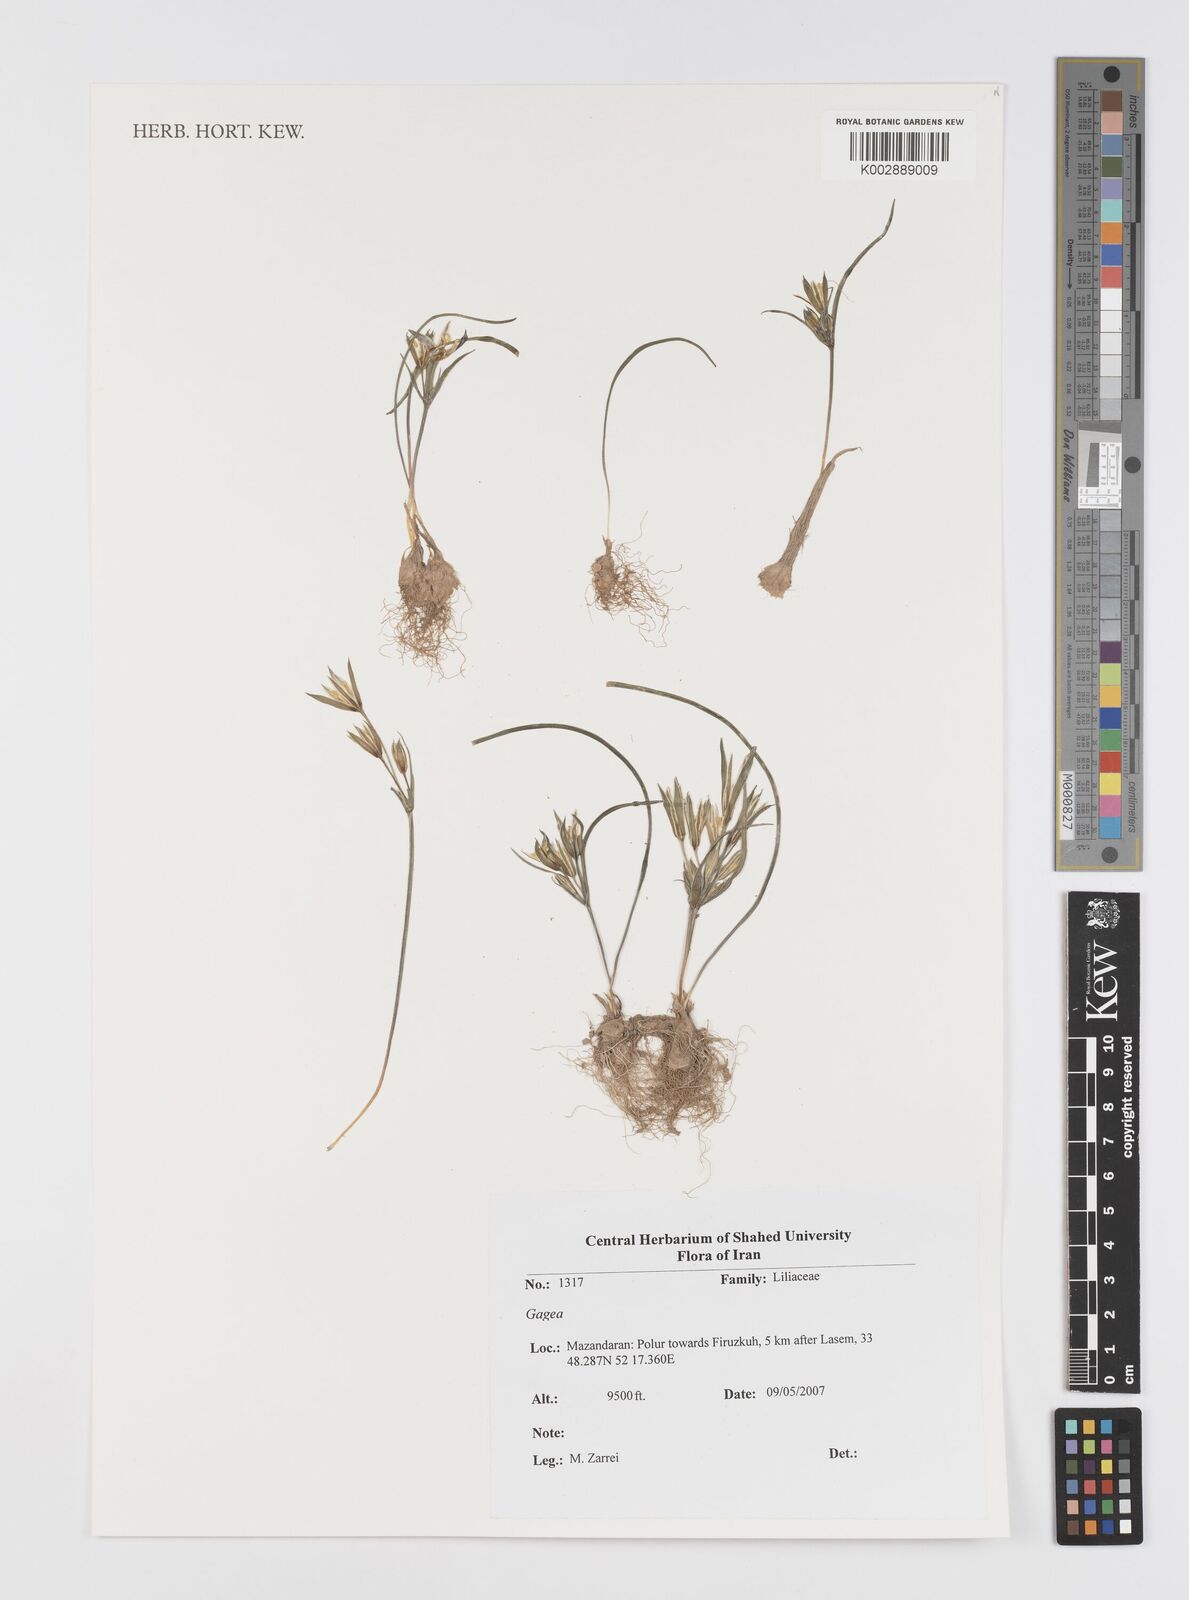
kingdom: Plantae
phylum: Tracheophyta
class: Liliopsida
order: Liliales
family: Liliaceae
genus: Gagea
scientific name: Gagea
